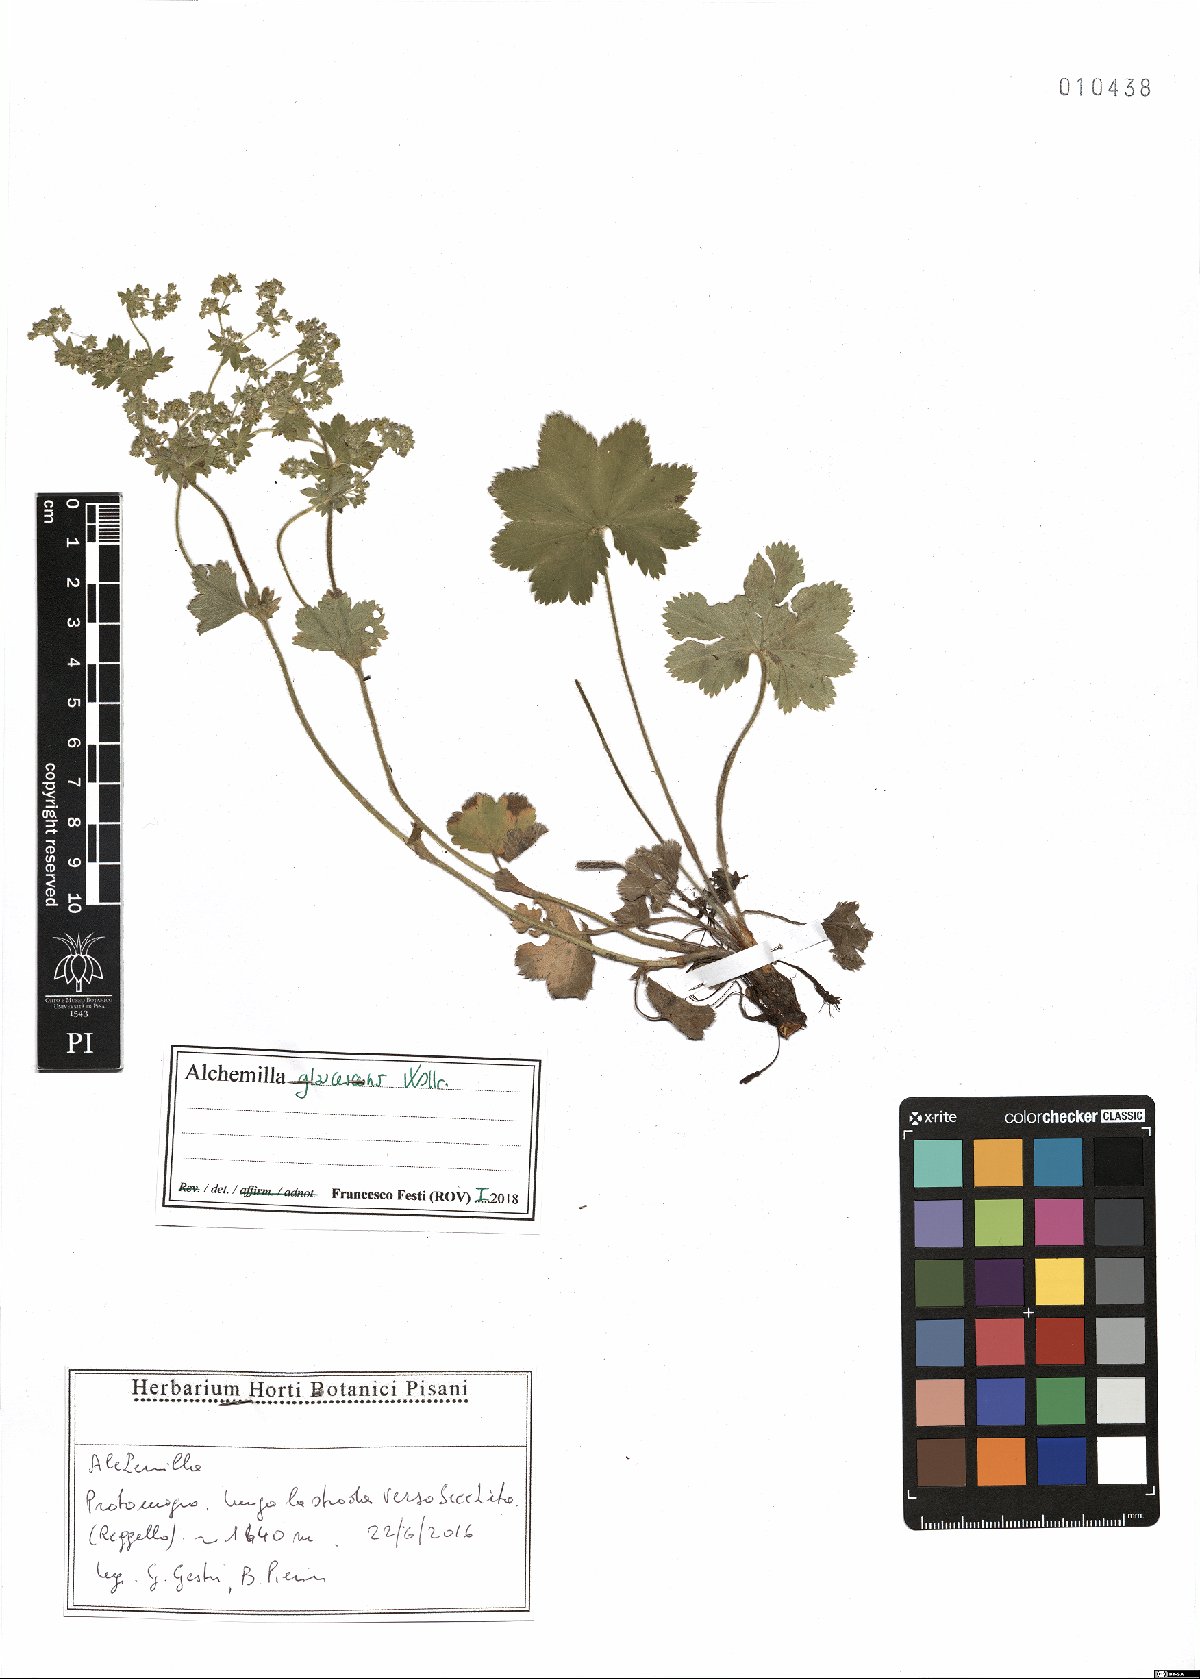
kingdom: Plantae
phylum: Tracheophyta
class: Magnoliopsida
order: Rosales
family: Rosaceae
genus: Alchemilla
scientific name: Alchemilla glaucescens
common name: Silky lady's mantle
